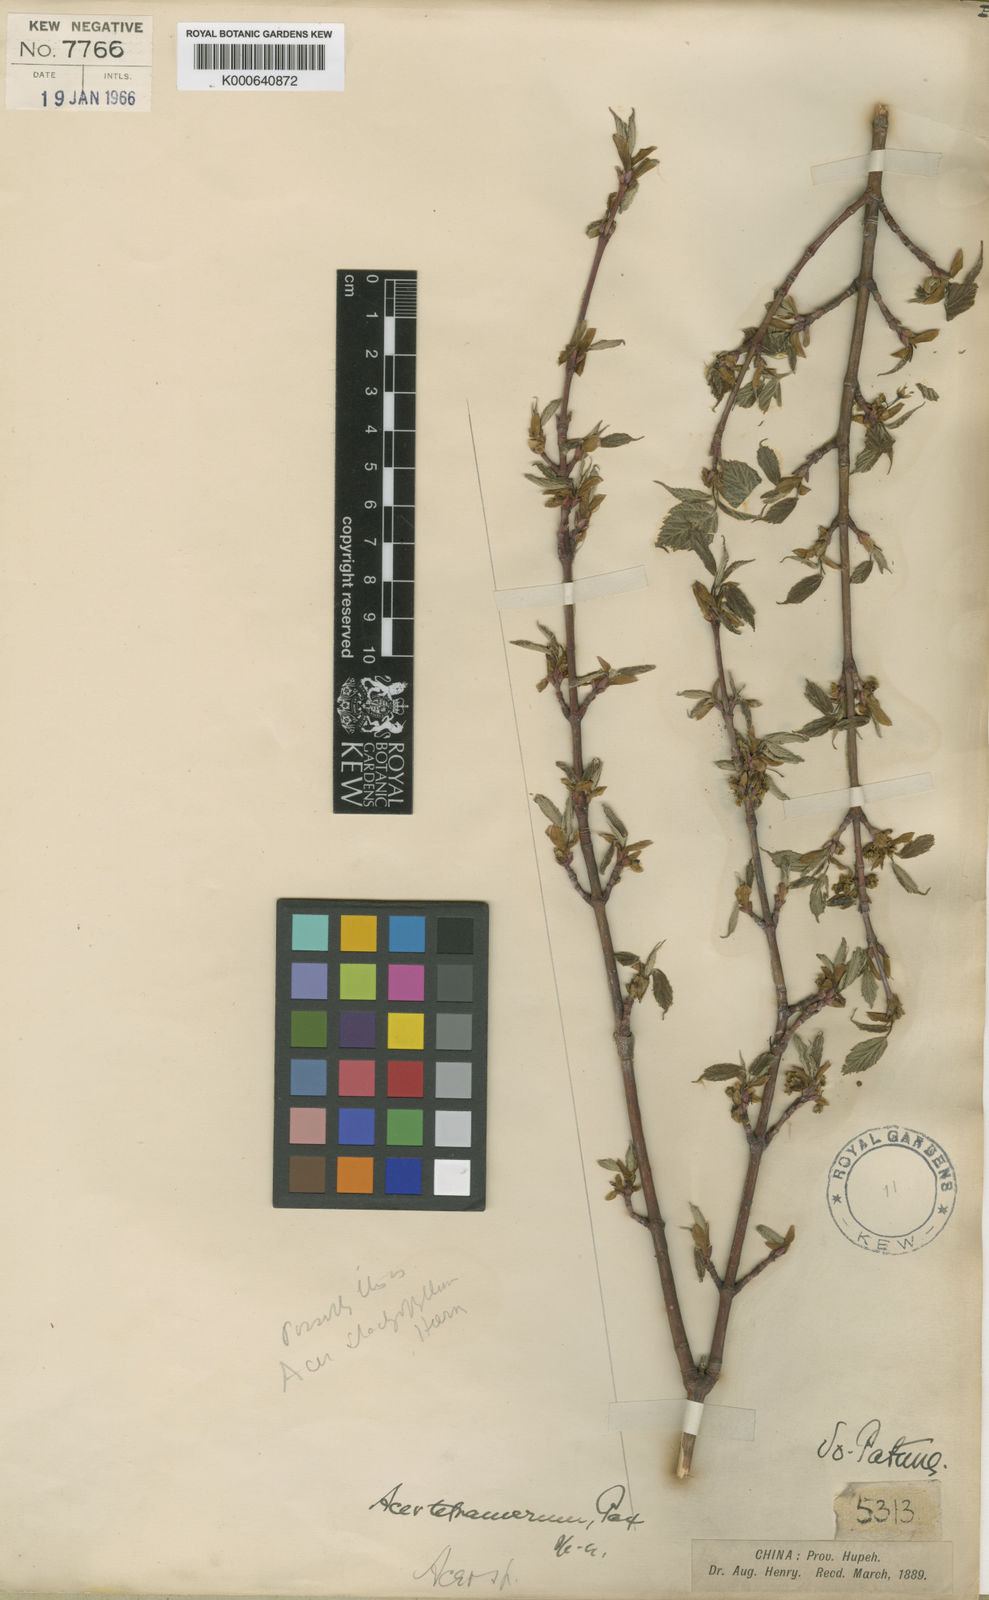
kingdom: Plantae
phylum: Tracheophyta
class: Magnoliopsida
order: Sapindales
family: Sapindaceae
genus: Acer
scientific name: Acer stachyophyllum
